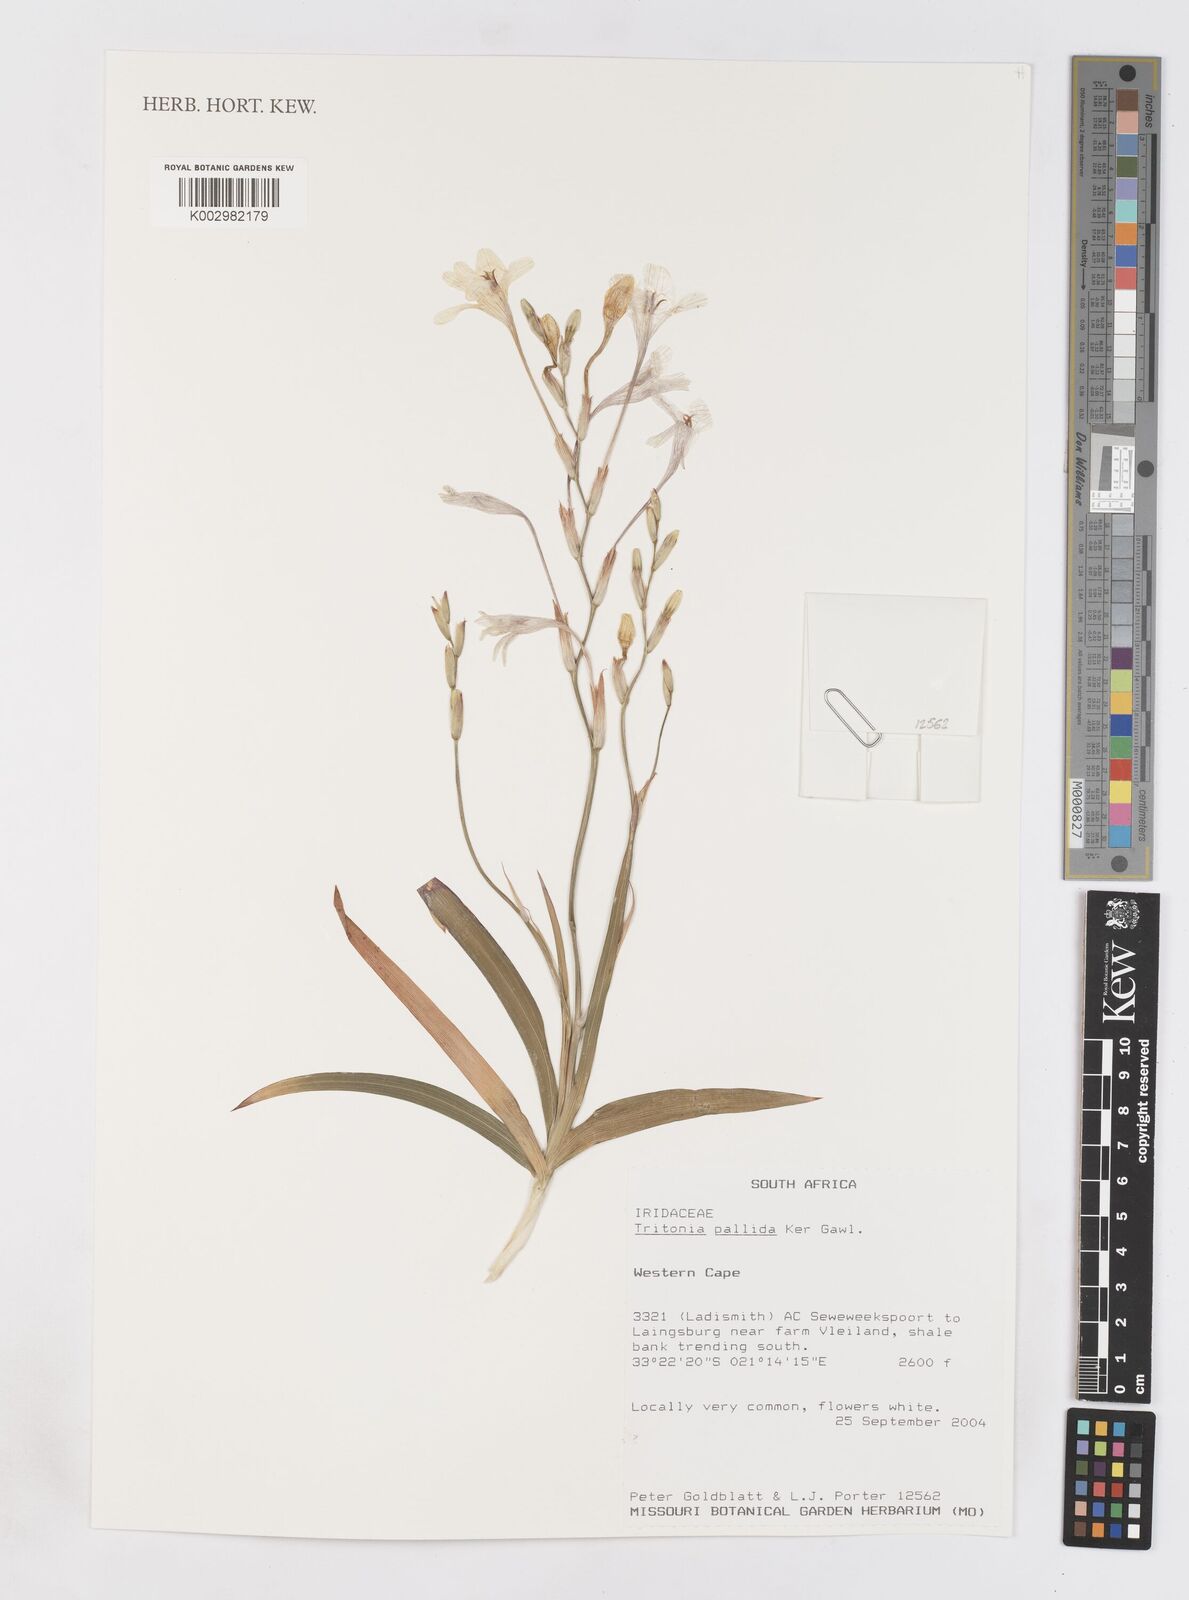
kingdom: Plantae
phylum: Tracheophyta
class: Liliopsida
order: Asparagales
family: Iridaceae
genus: Tritonia
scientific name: Tritonia pallida
